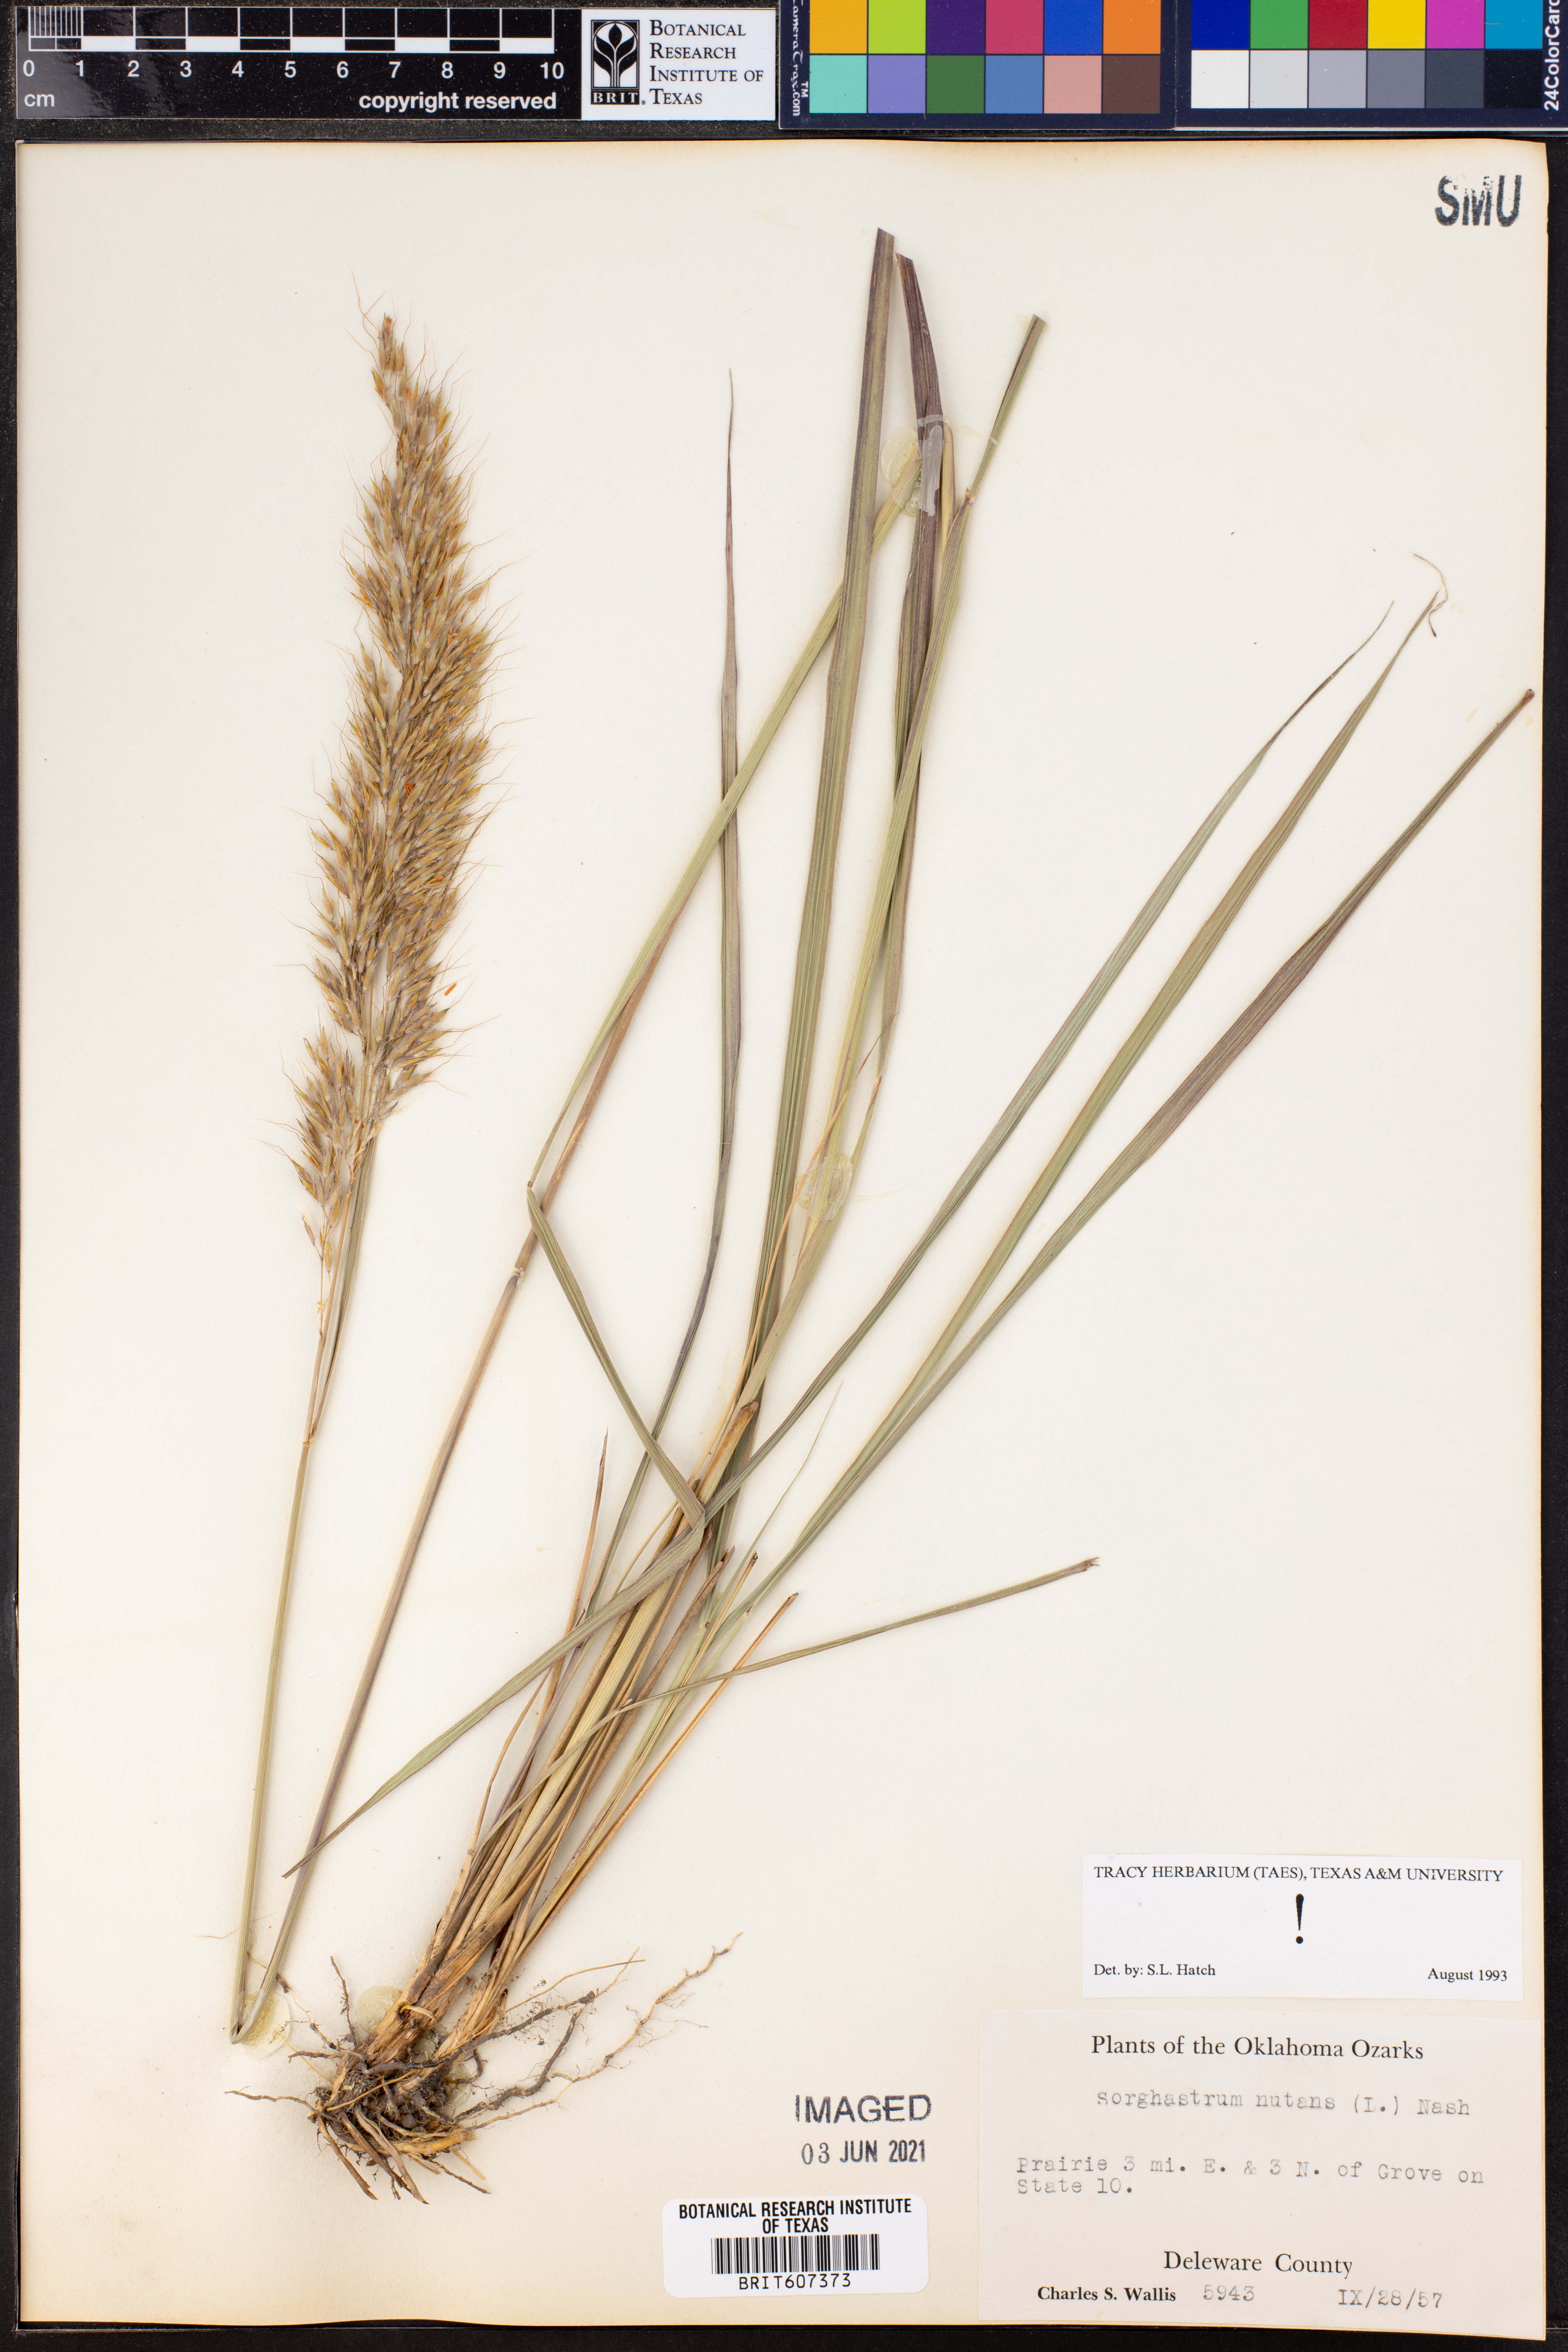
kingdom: Plantae
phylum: Tracheophyta
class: Liliopsida
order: Poales
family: Poaceae
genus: Sorghastrum
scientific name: Sorghastrum nutans
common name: Indian grass
